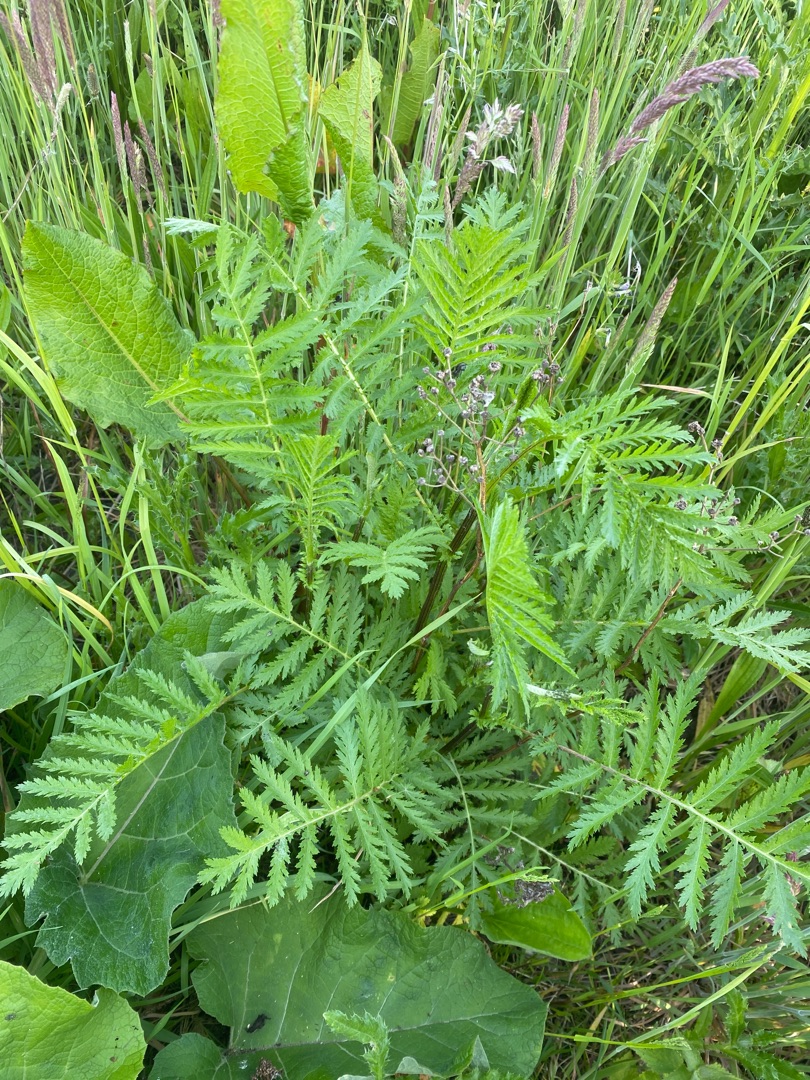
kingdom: Plantae
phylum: Tracheophyta
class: Magnoliopsida
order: Asterales
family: Asteraceae
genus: Tanacetum
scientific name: Tanacetum vulgare
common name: Rejnfan
